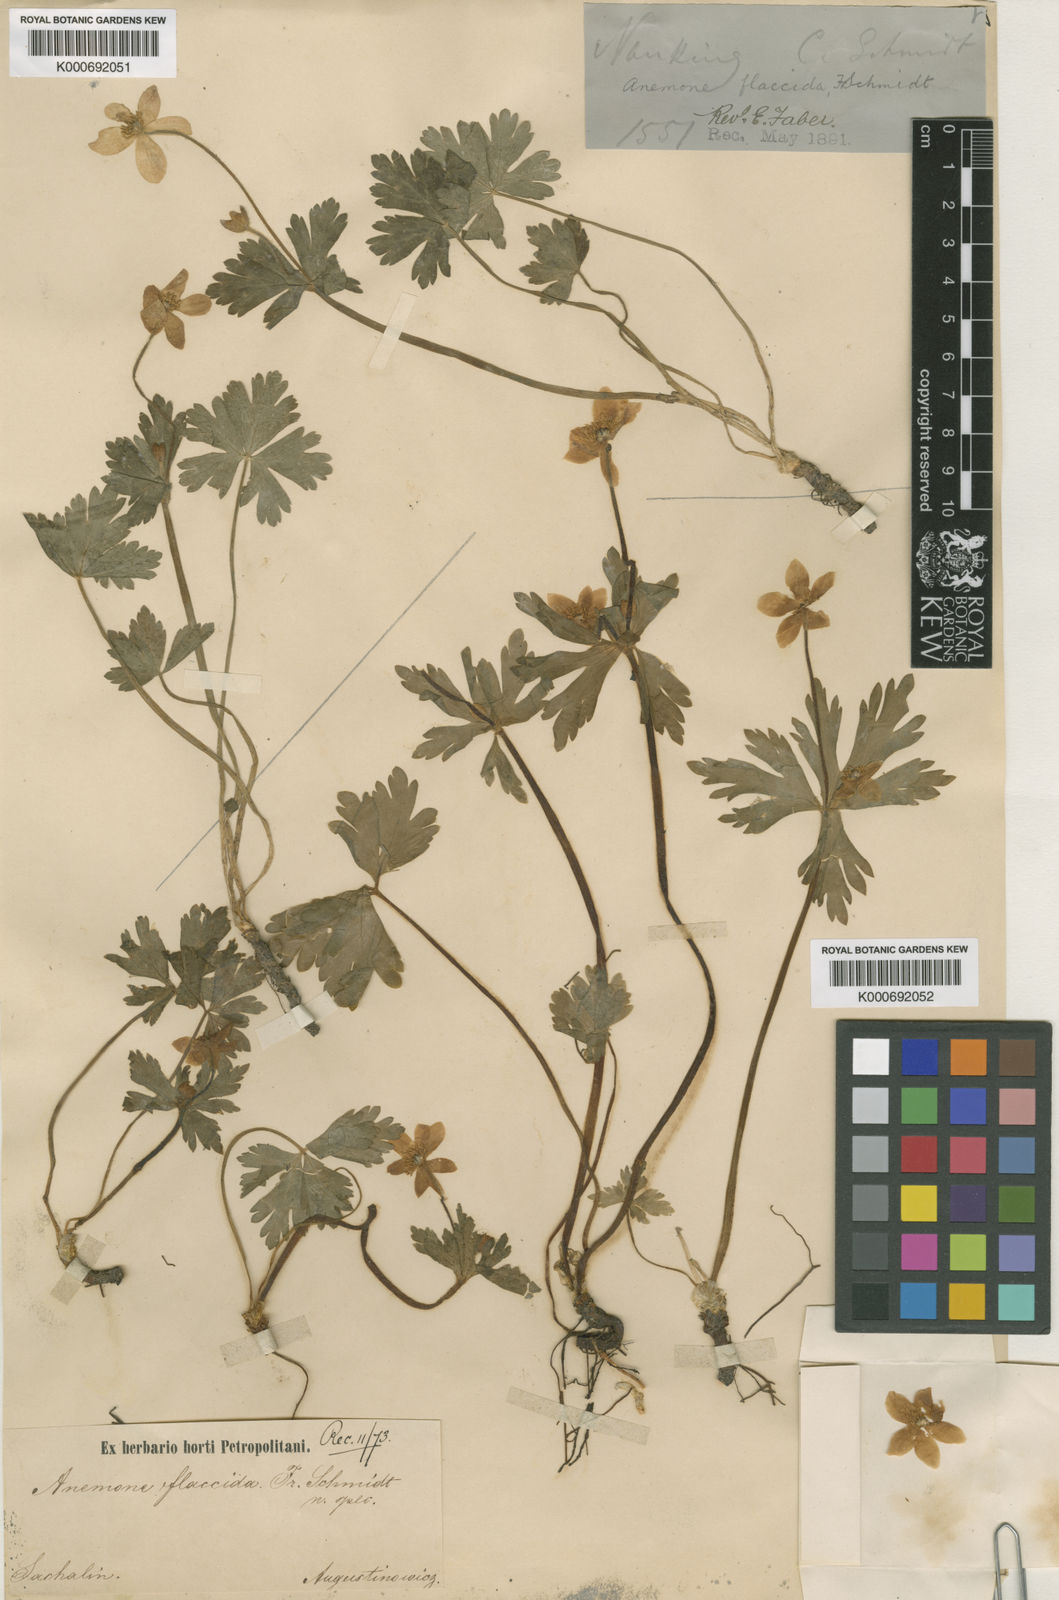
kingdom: Plantae
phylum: Tracheophyta
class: Magnoliopsida
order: Ranunculales
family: Ranunculaceae
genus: Anemonastrum
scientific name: Anemonastrum flaccidum
